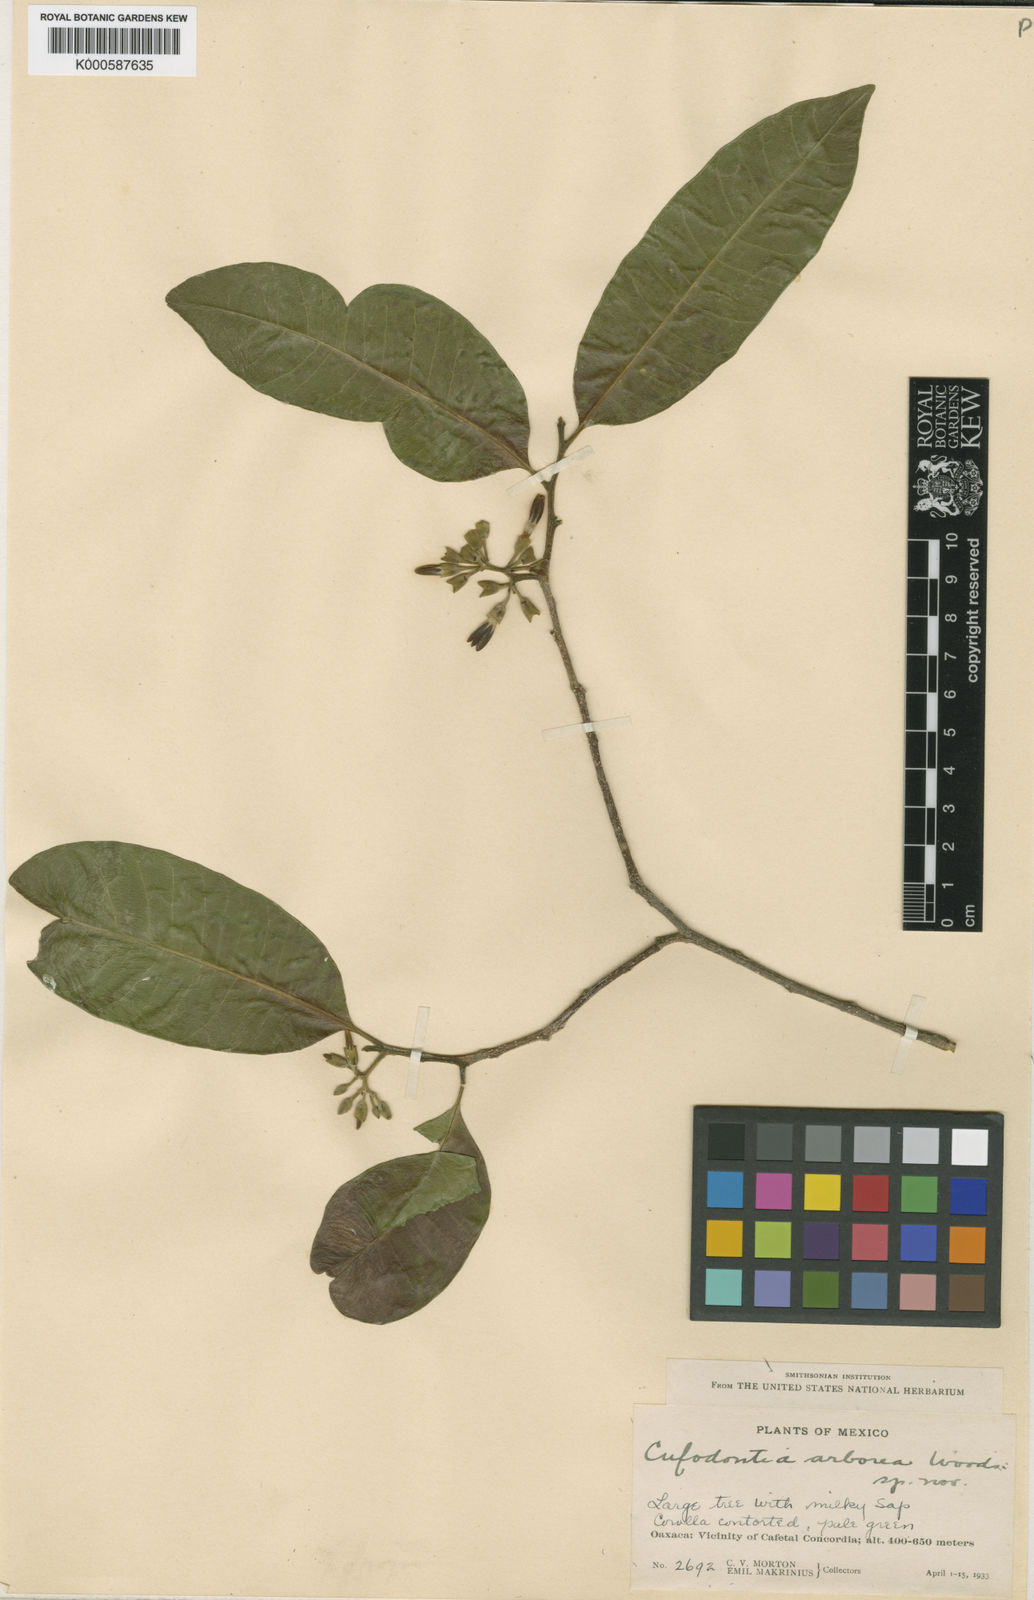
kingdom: Plantae
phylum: Tracheophyta
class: Magnoliopsida
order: Gentianales
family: Apocynaceae
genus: Aspidosperma
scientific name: Aspidosperma
